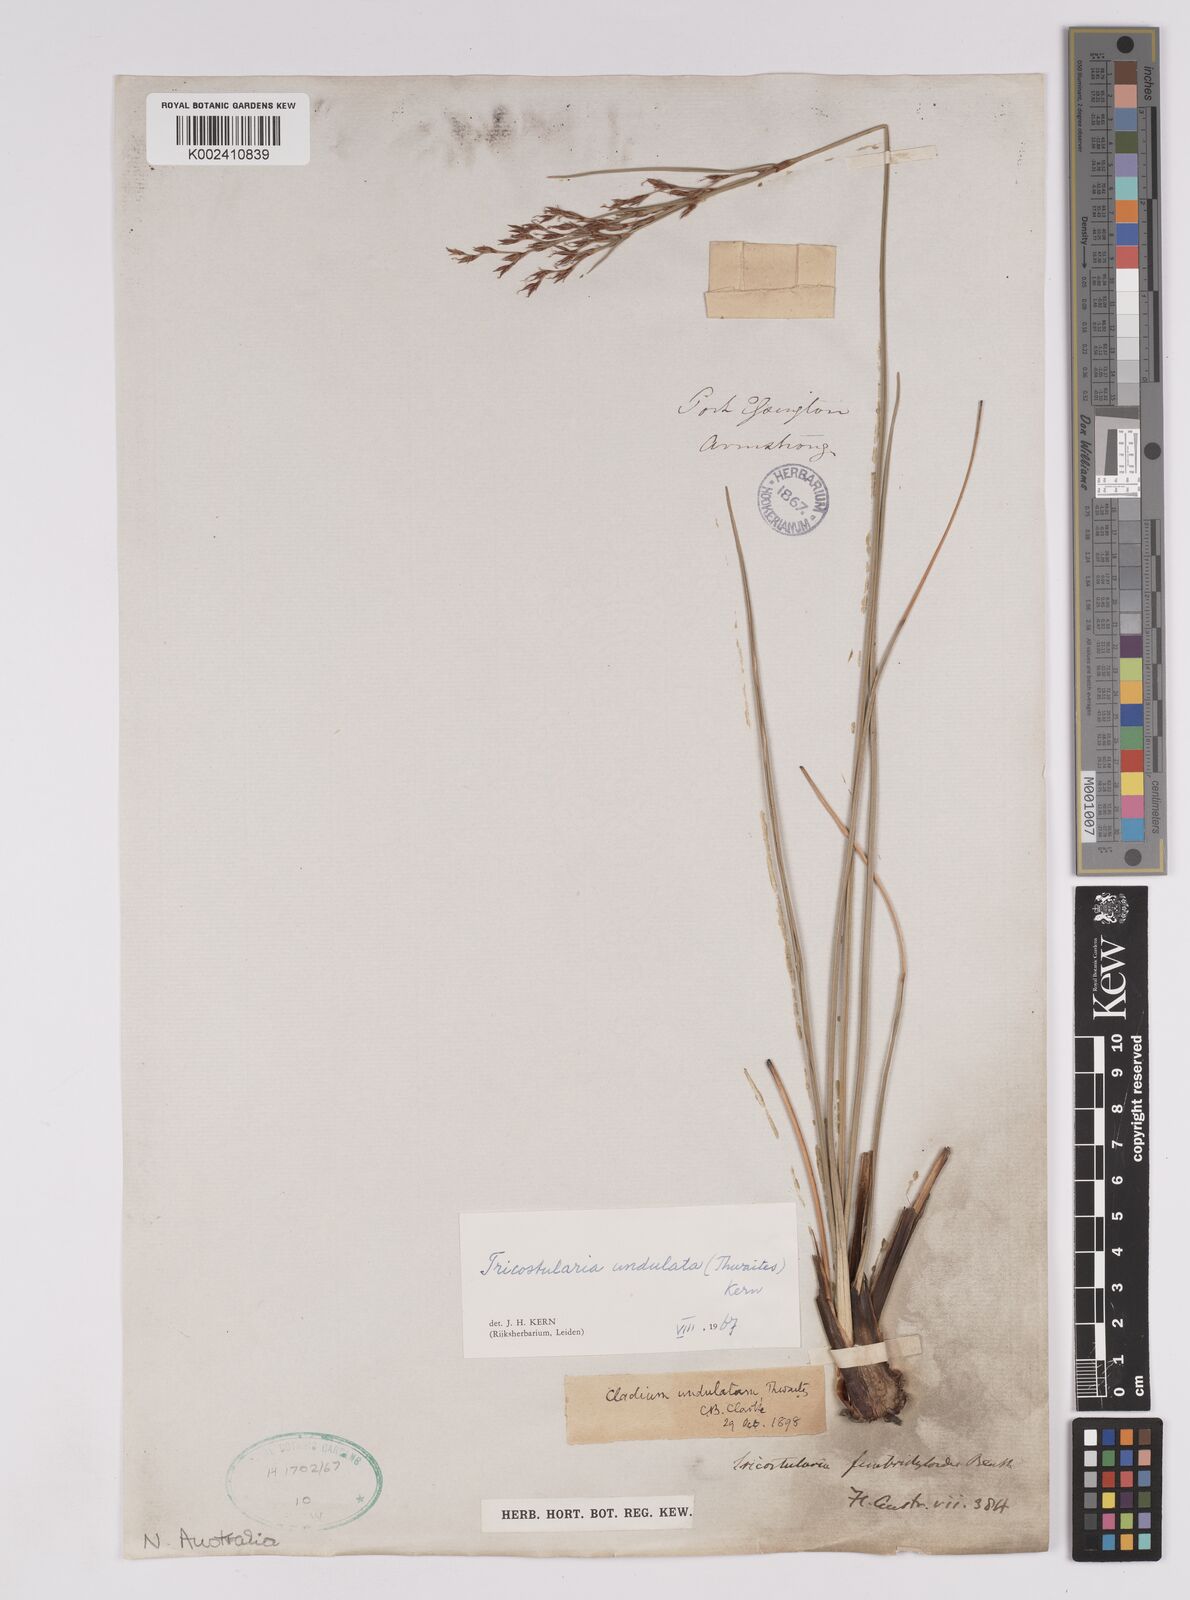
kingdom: Plantae
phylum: Tracheophyta
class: Liliopsida
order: Poales
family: Cyperaceae
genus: Anthelepis
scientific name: Anthelepis undulata
